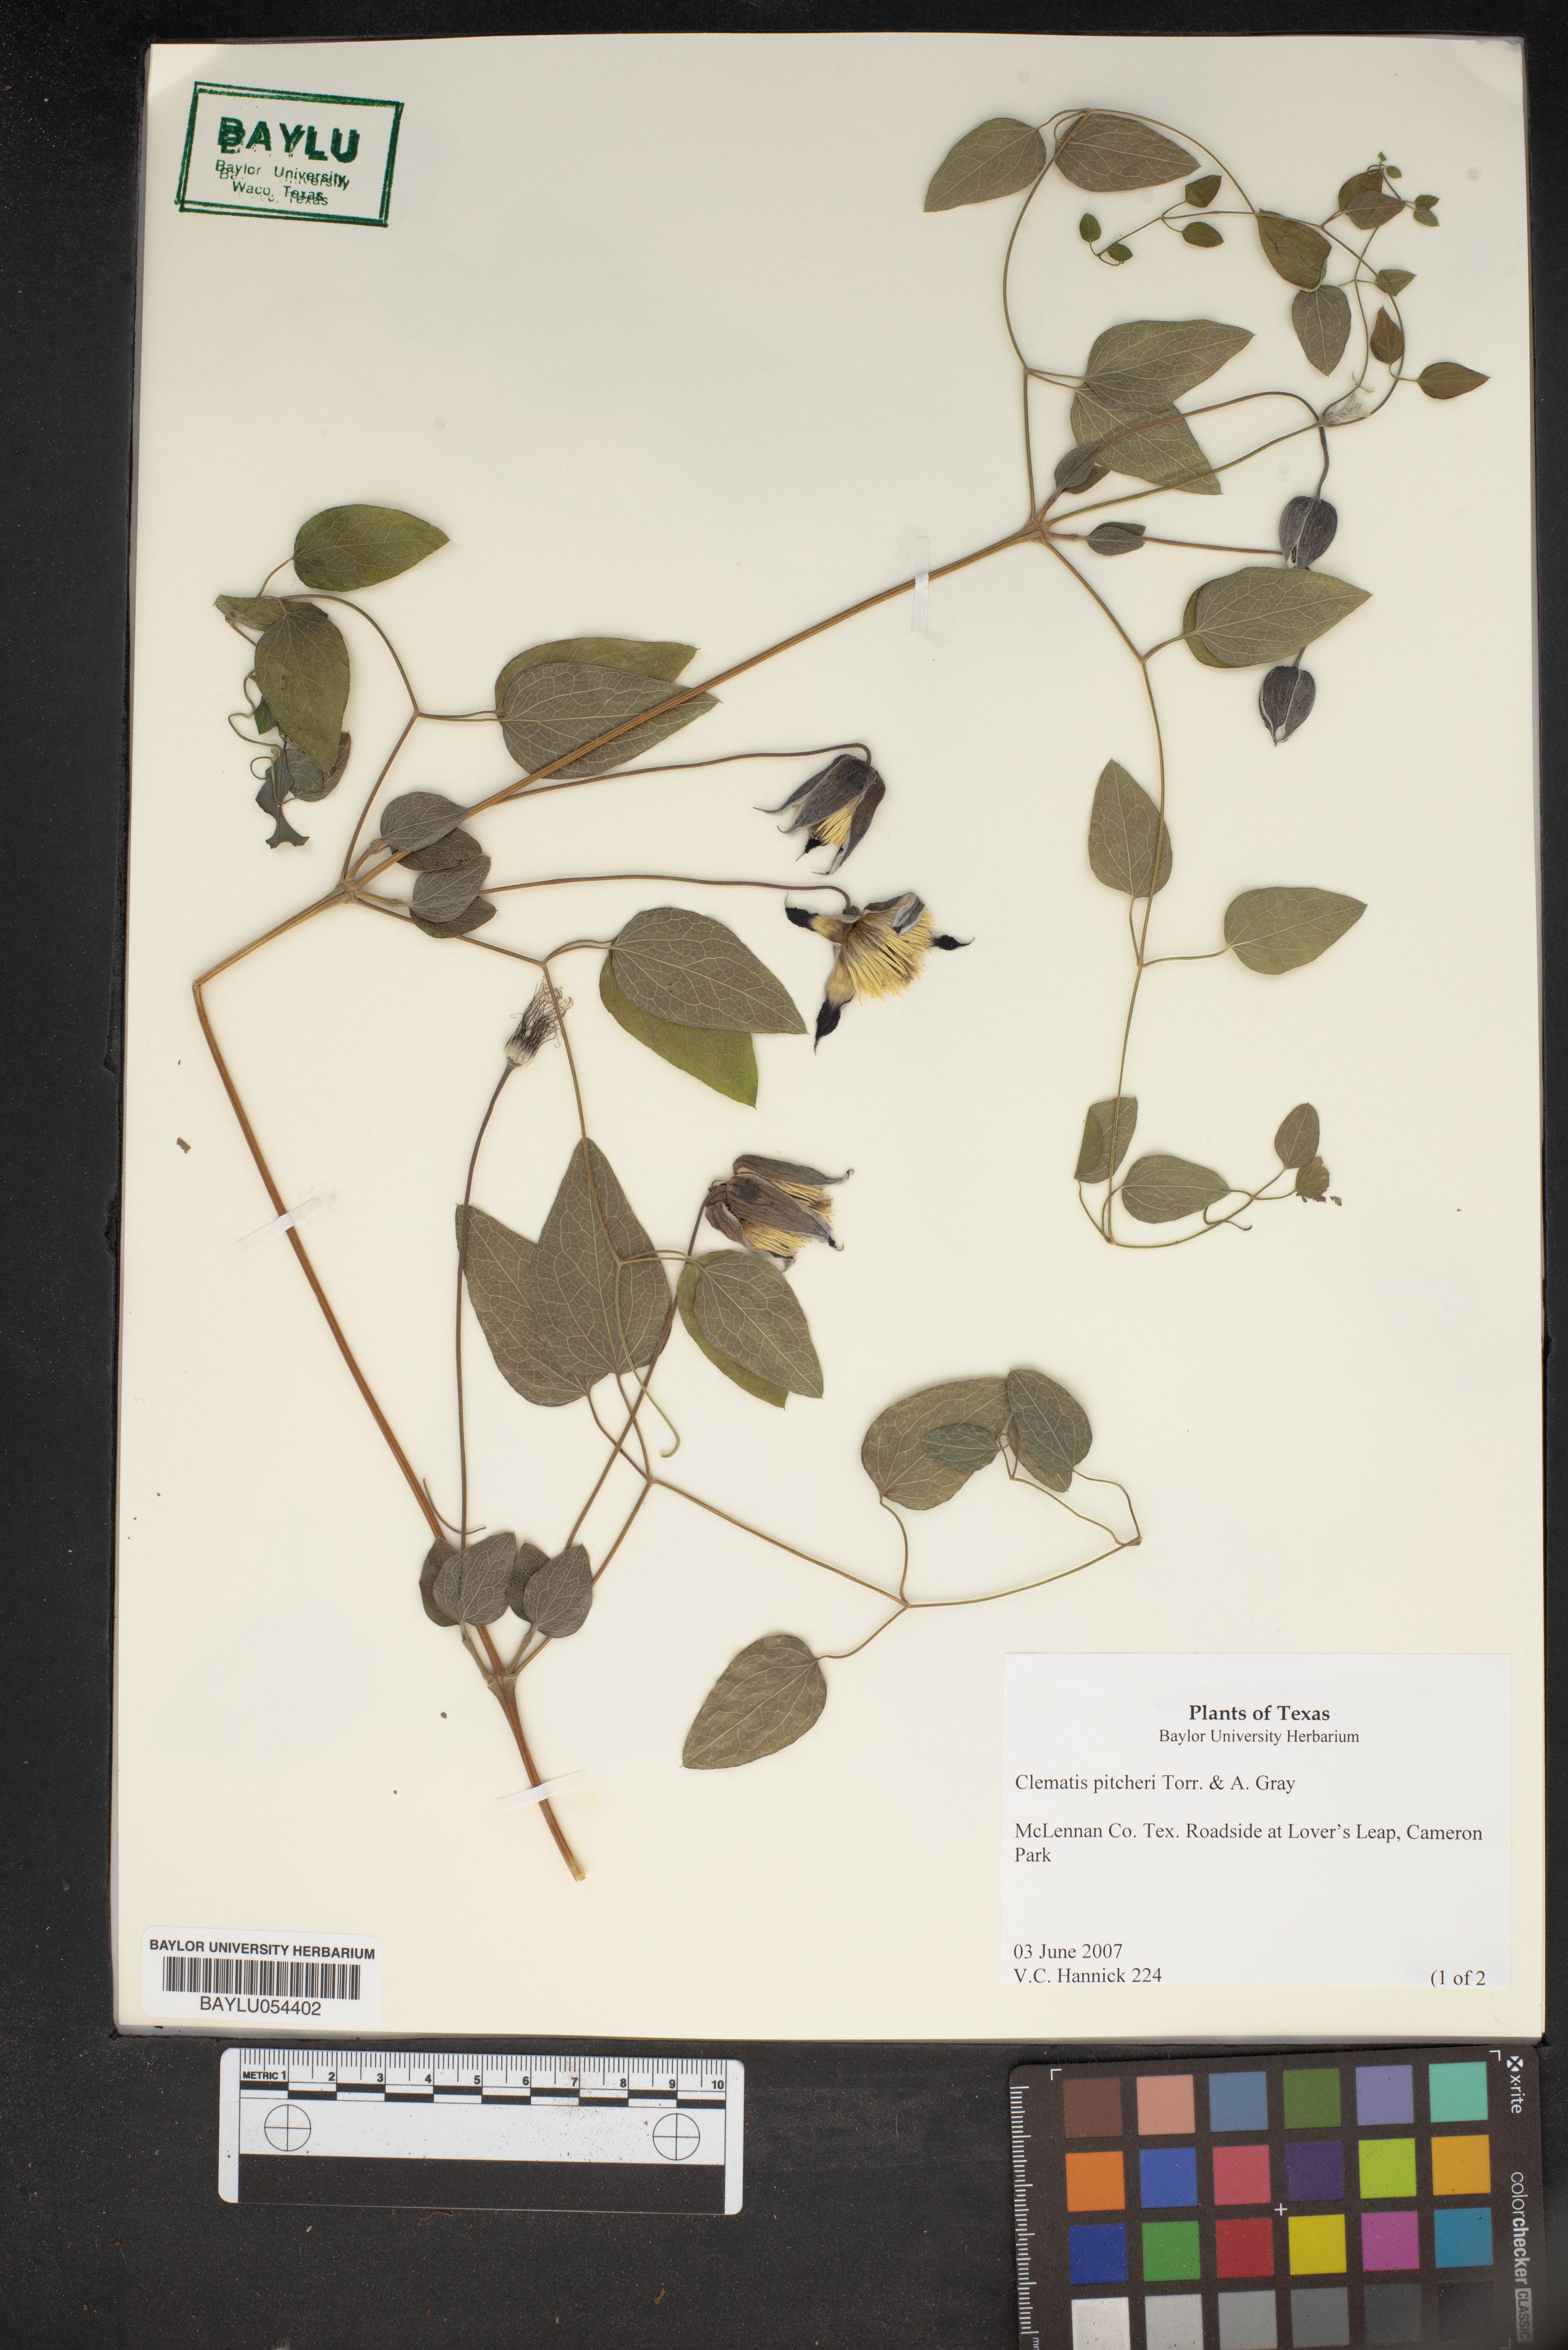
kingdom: Plantae
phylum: Tracheophyta
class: Magnoliopsida
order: Ranunculales
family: Ranunculaceae
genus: Clematis
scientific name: Clematis pitcheri
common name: Bellflower clematis
